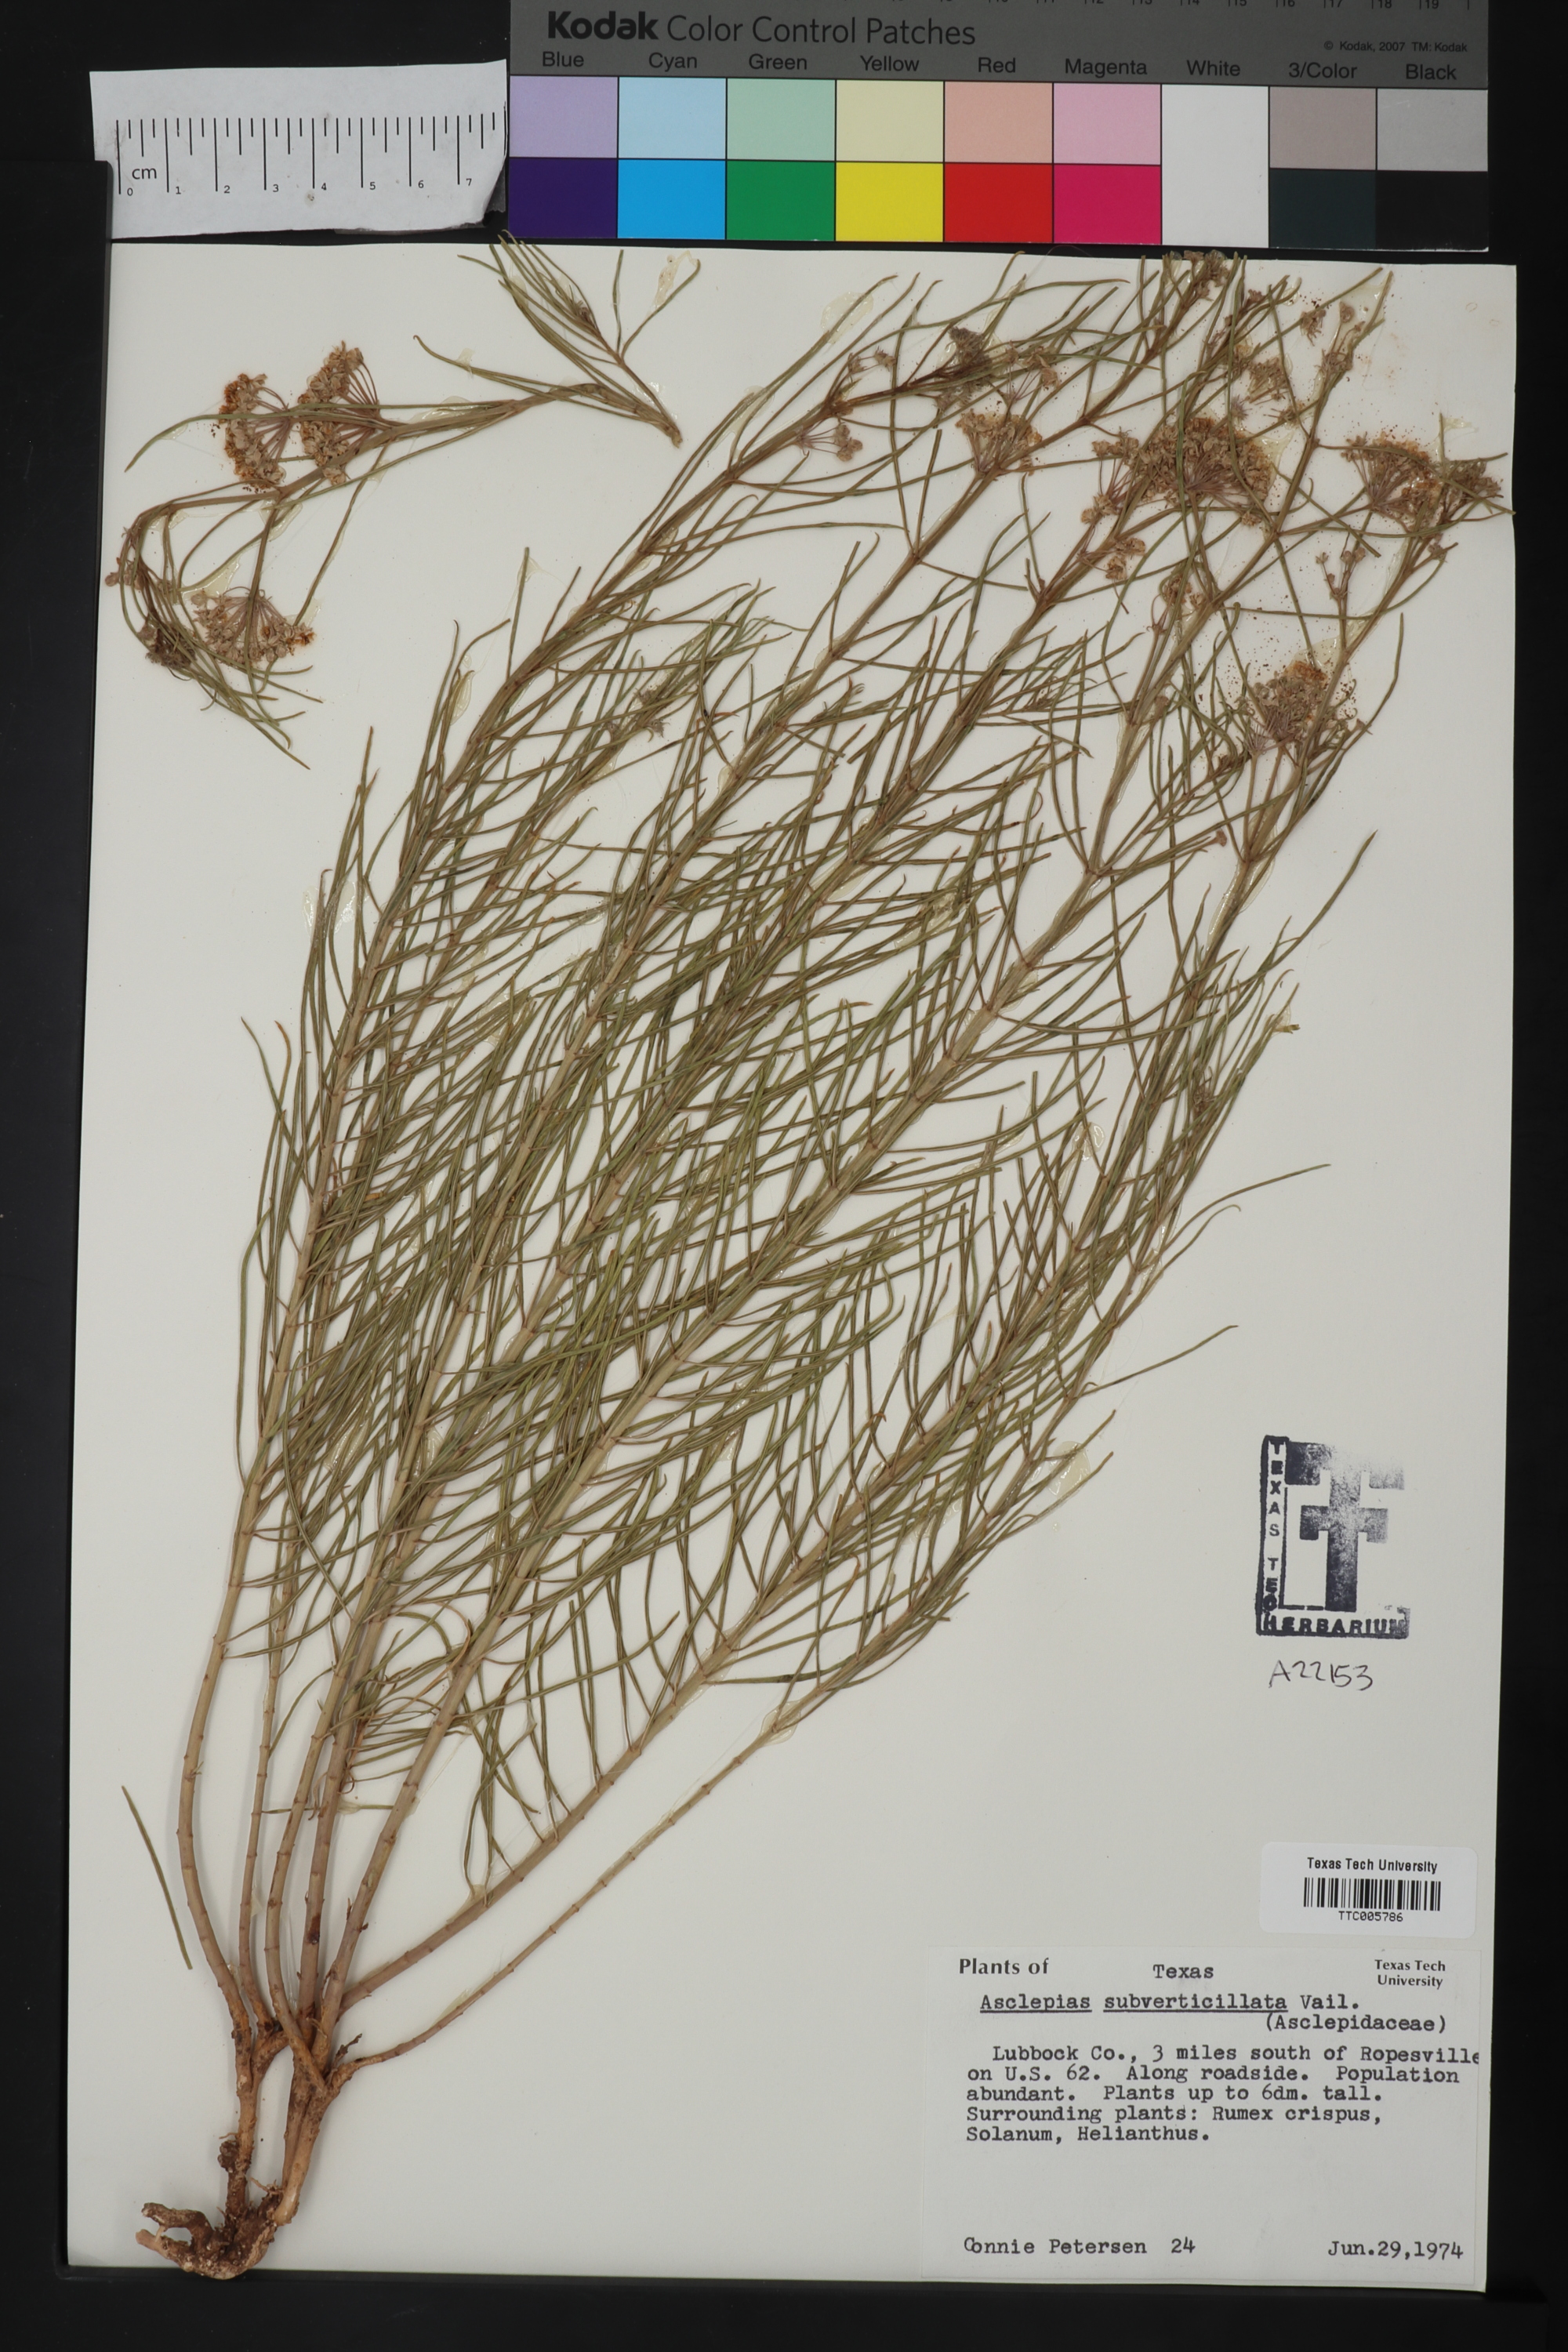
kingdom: Plantae
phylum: Tracheophyta
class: Magnoliopsida
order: Gentianales
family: Apocynaceae
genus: Asclepias
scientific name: Asclepias subverticillata
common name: Horsetail milkweed
